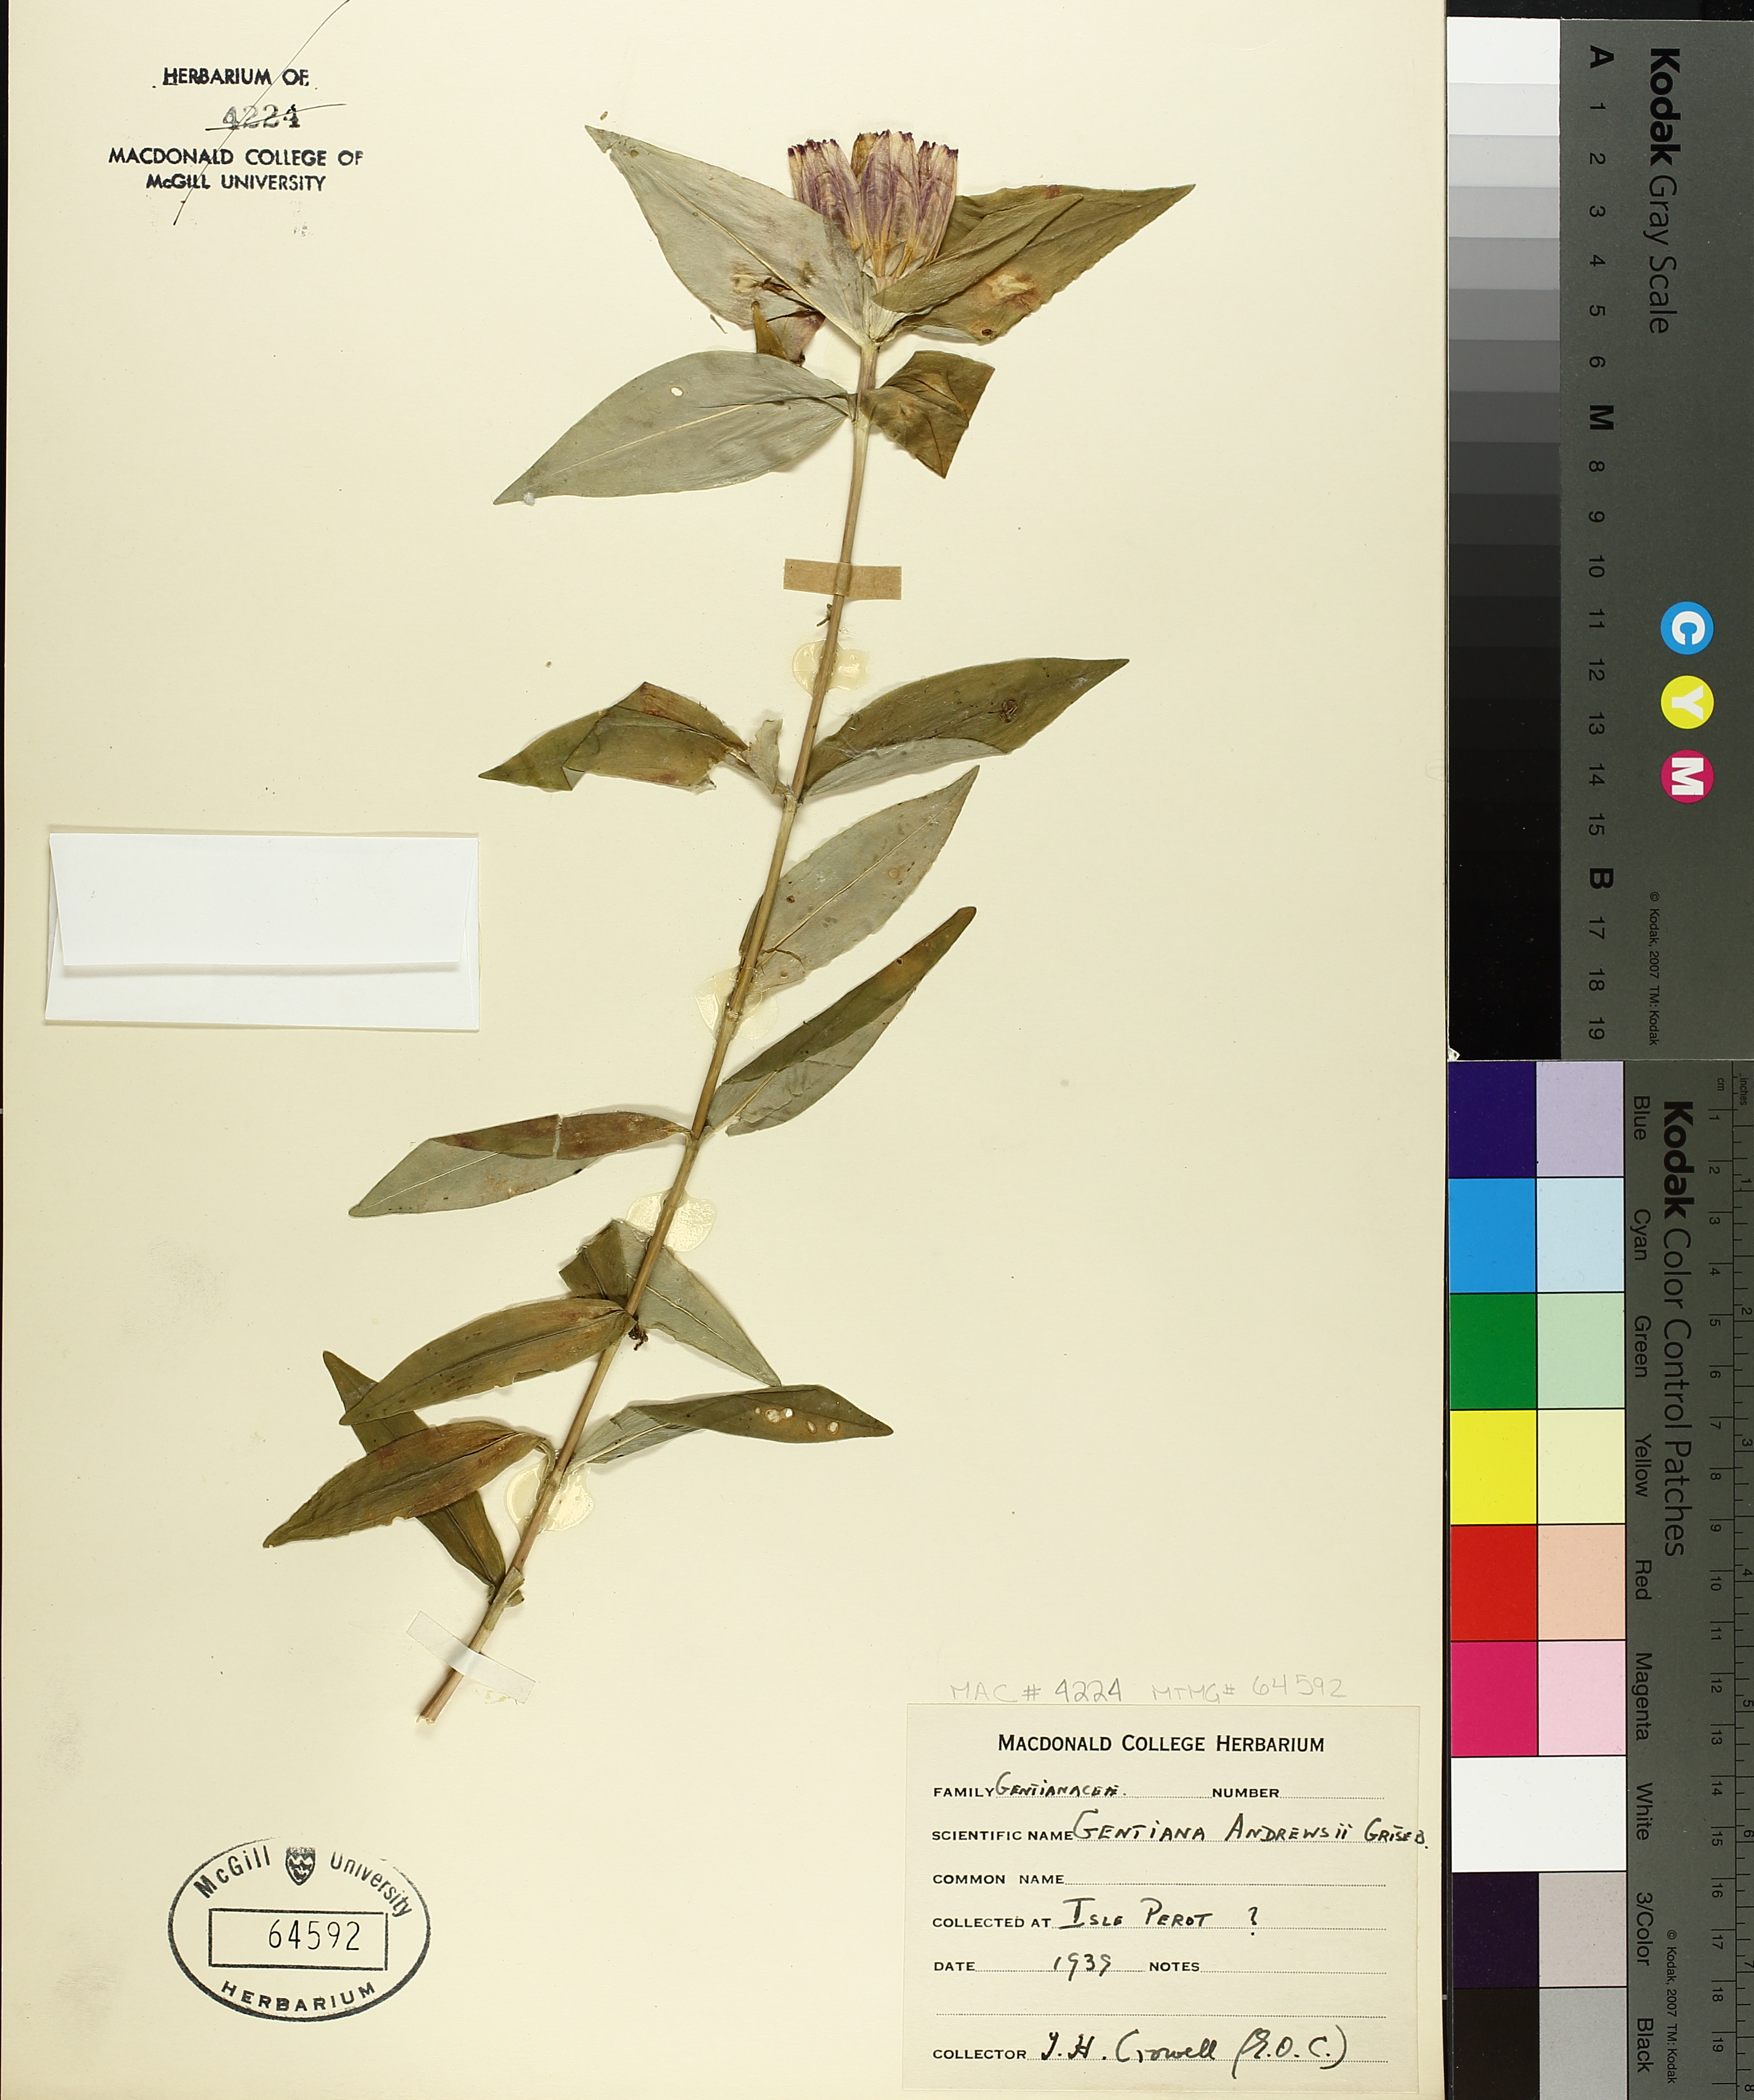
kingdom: Plantae
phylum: Tracheophyta
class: Magnoliopsida
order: Gentianales
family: Gentianaceae
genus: Gentiana
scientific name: Gentiana andrewsii
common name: Bottle gentian
